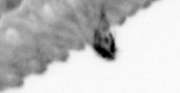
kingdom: Animalia
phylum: Annelida
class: Polychaeta
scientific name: Polychaeta
